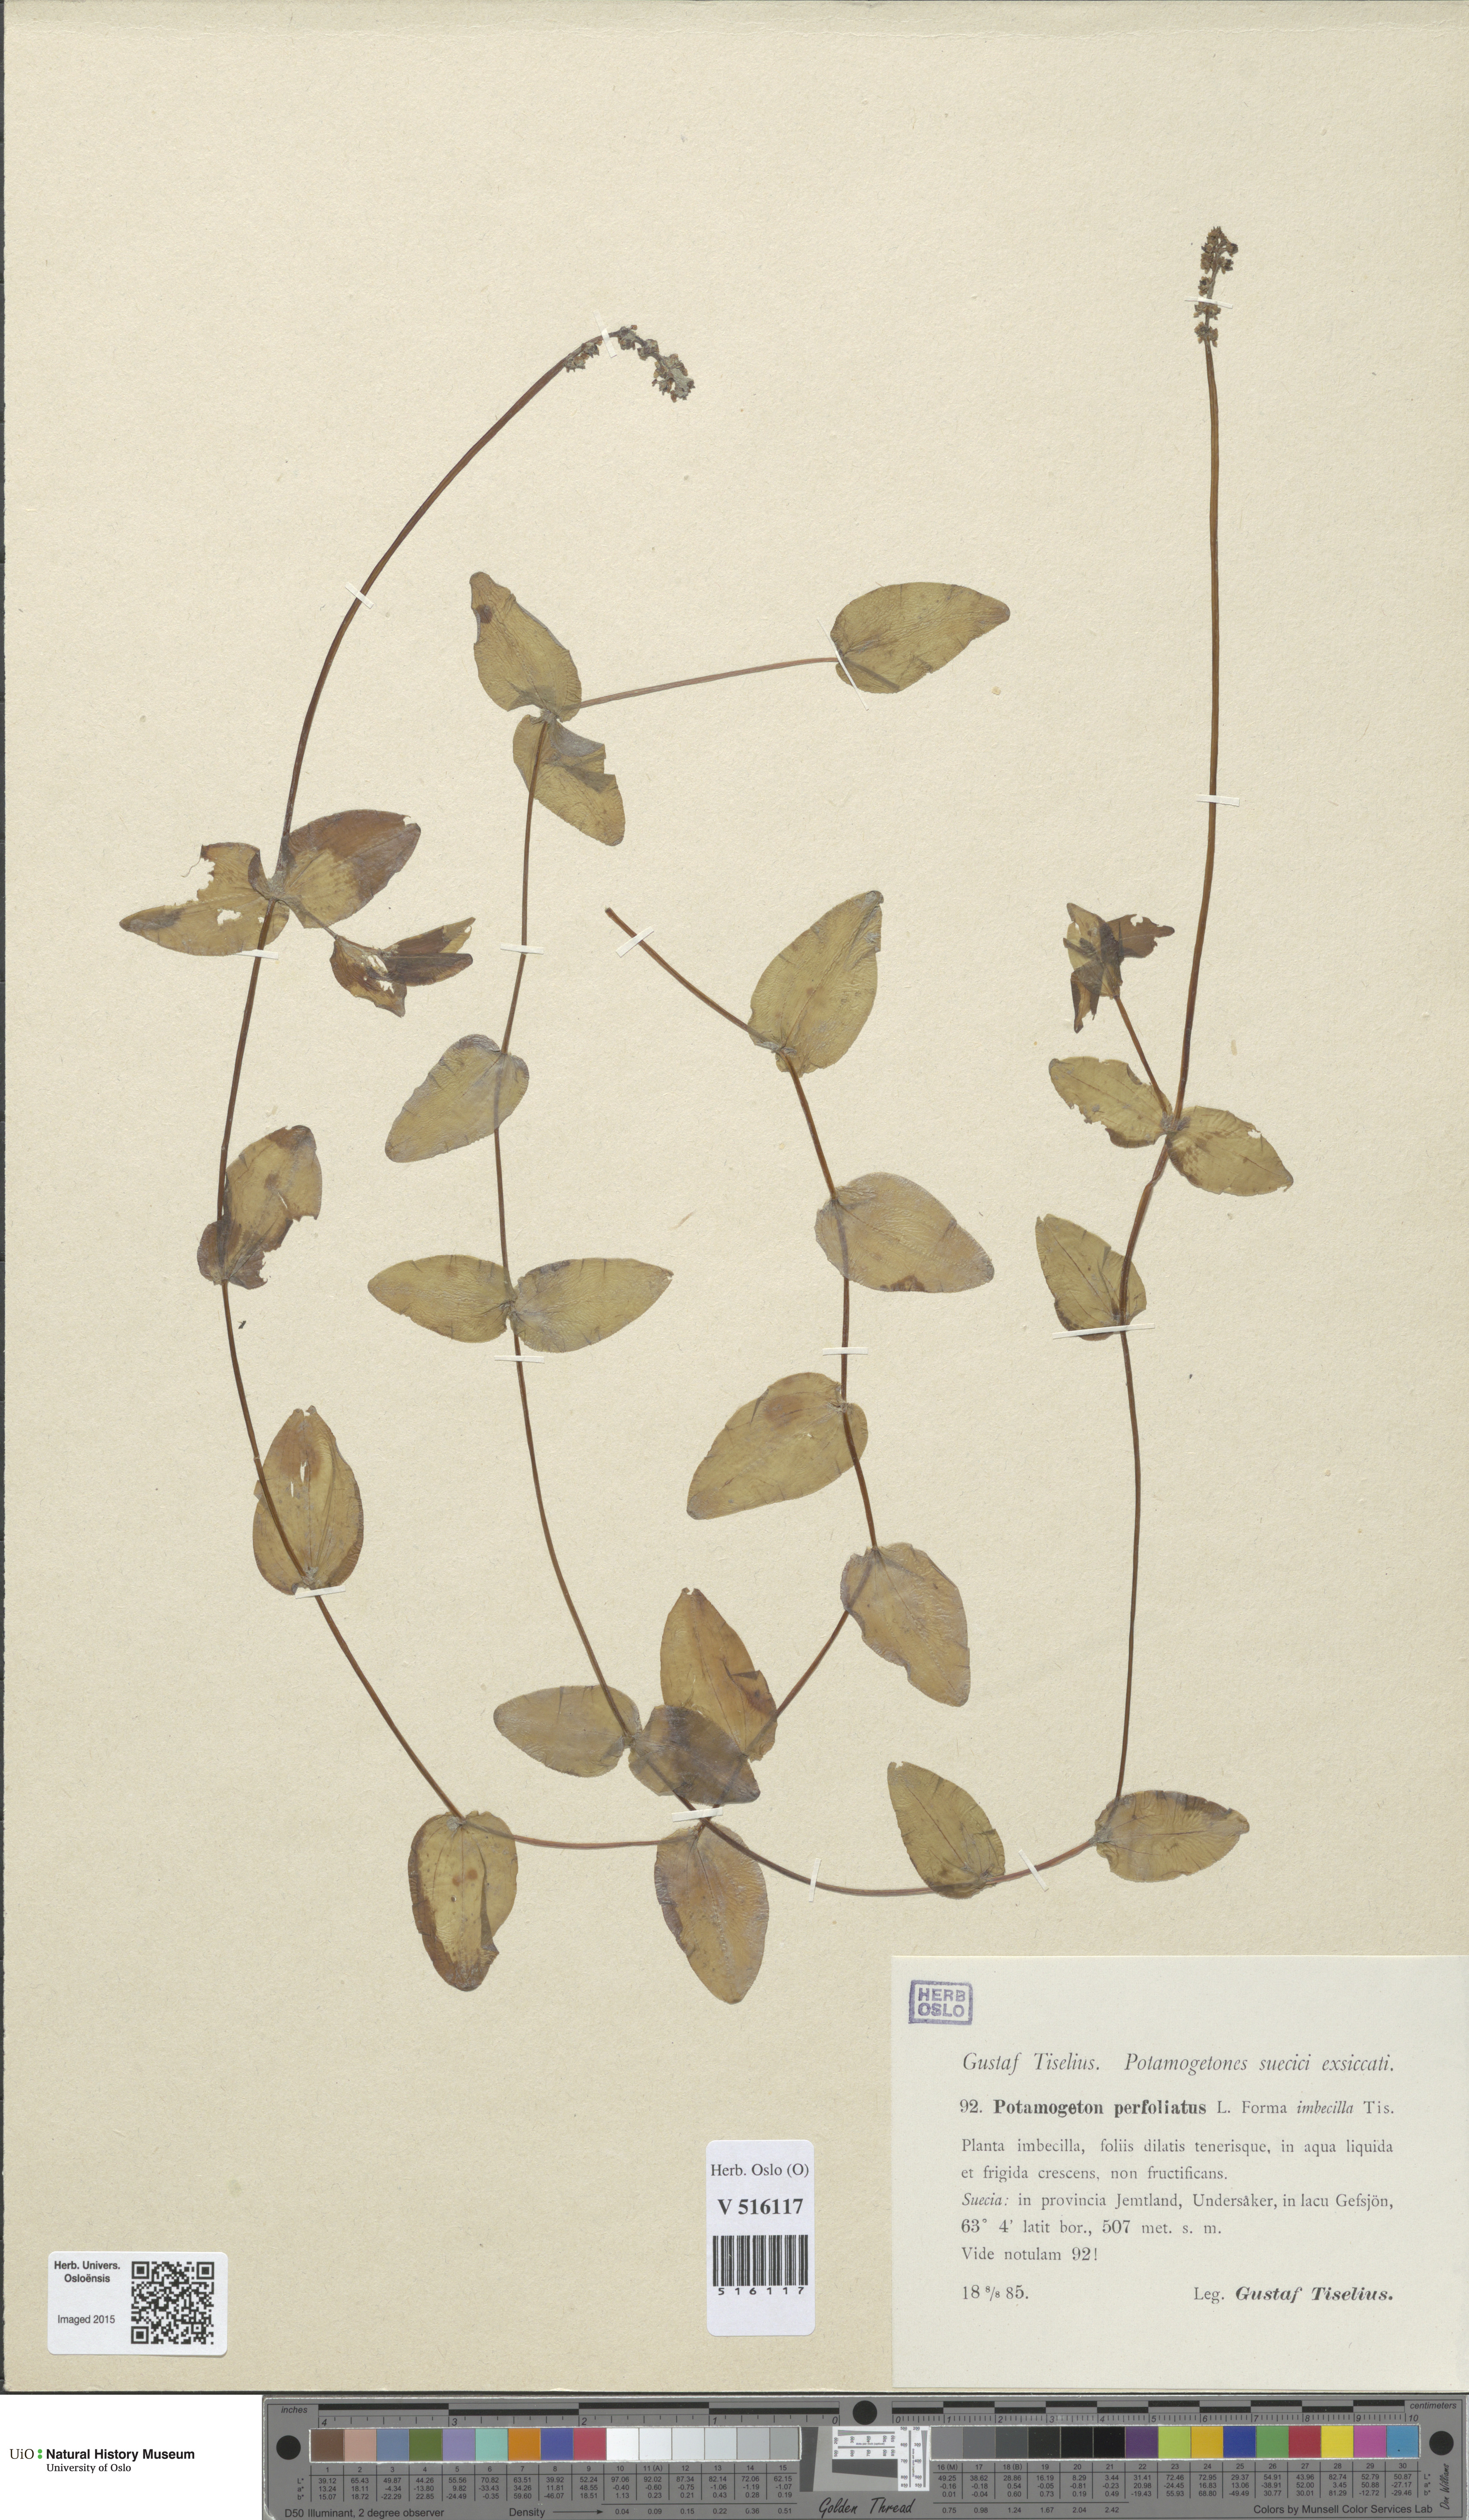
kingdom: Plantae
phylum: Tracheophyta
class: Liliopsida
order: Alismatales
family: Potamogetonaceae
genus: Potamogeton
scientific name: Potamogeton perfoliatus
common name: Perfoliate pondweed
